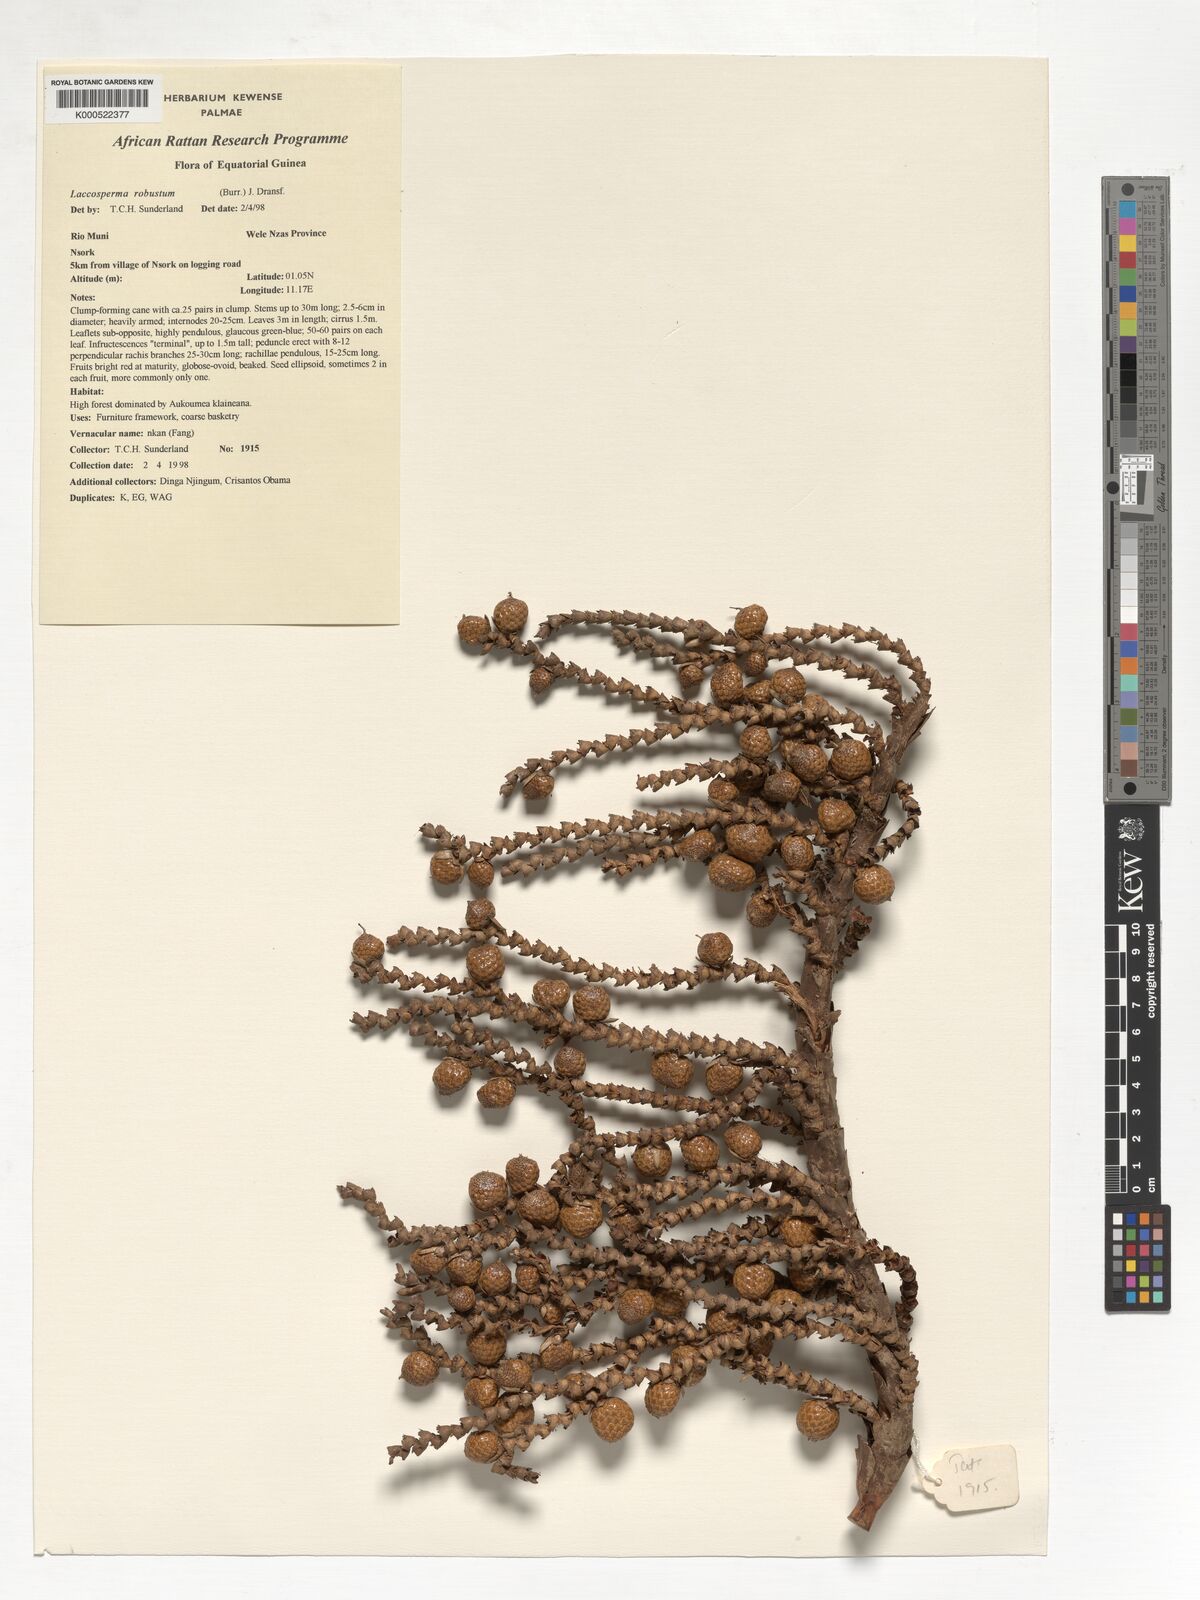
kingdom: Plantae
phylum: Tracheophyta
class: Liliopsida
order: Arecales
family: Arecaceae
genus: Laccosperma
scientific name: Laccosperma robustum
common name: Rattan
